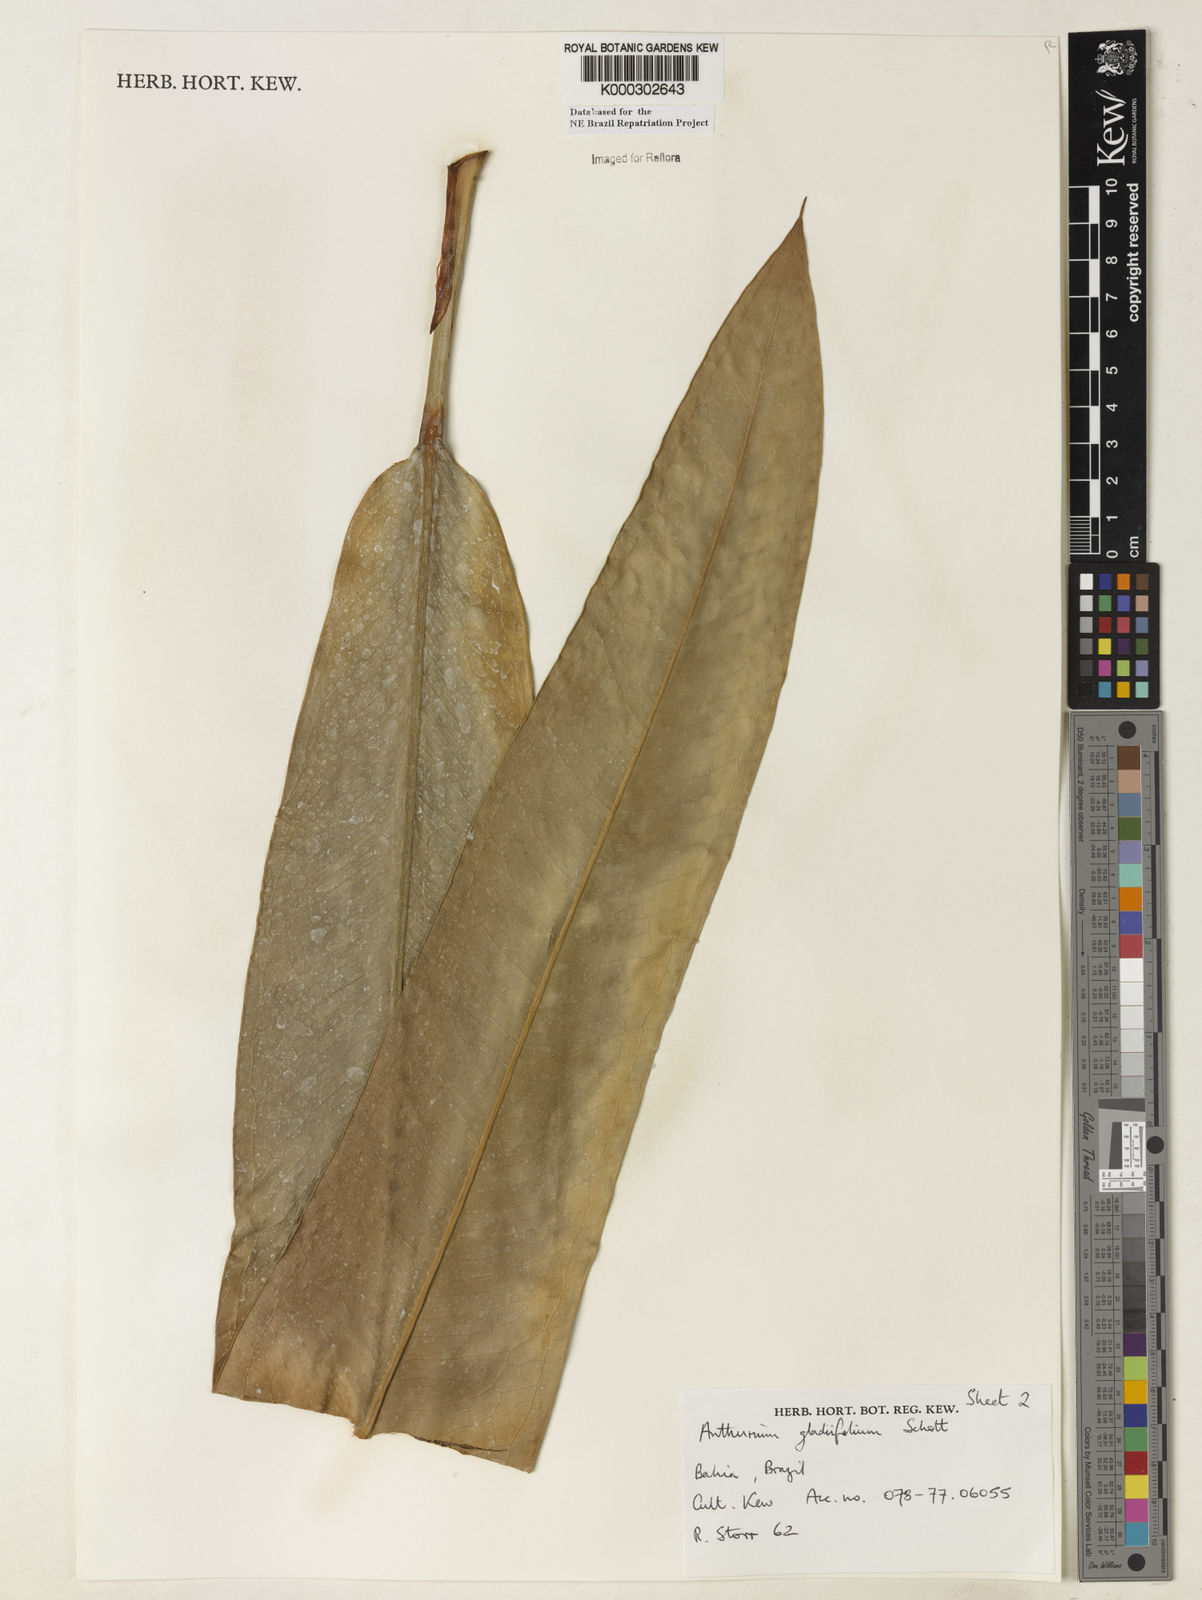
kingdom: Plantae
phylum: Tracheophyta
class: Liliopsida
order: Alismatales
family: Araceae
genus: Anthurium
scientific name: Anthurium gladiifolium
